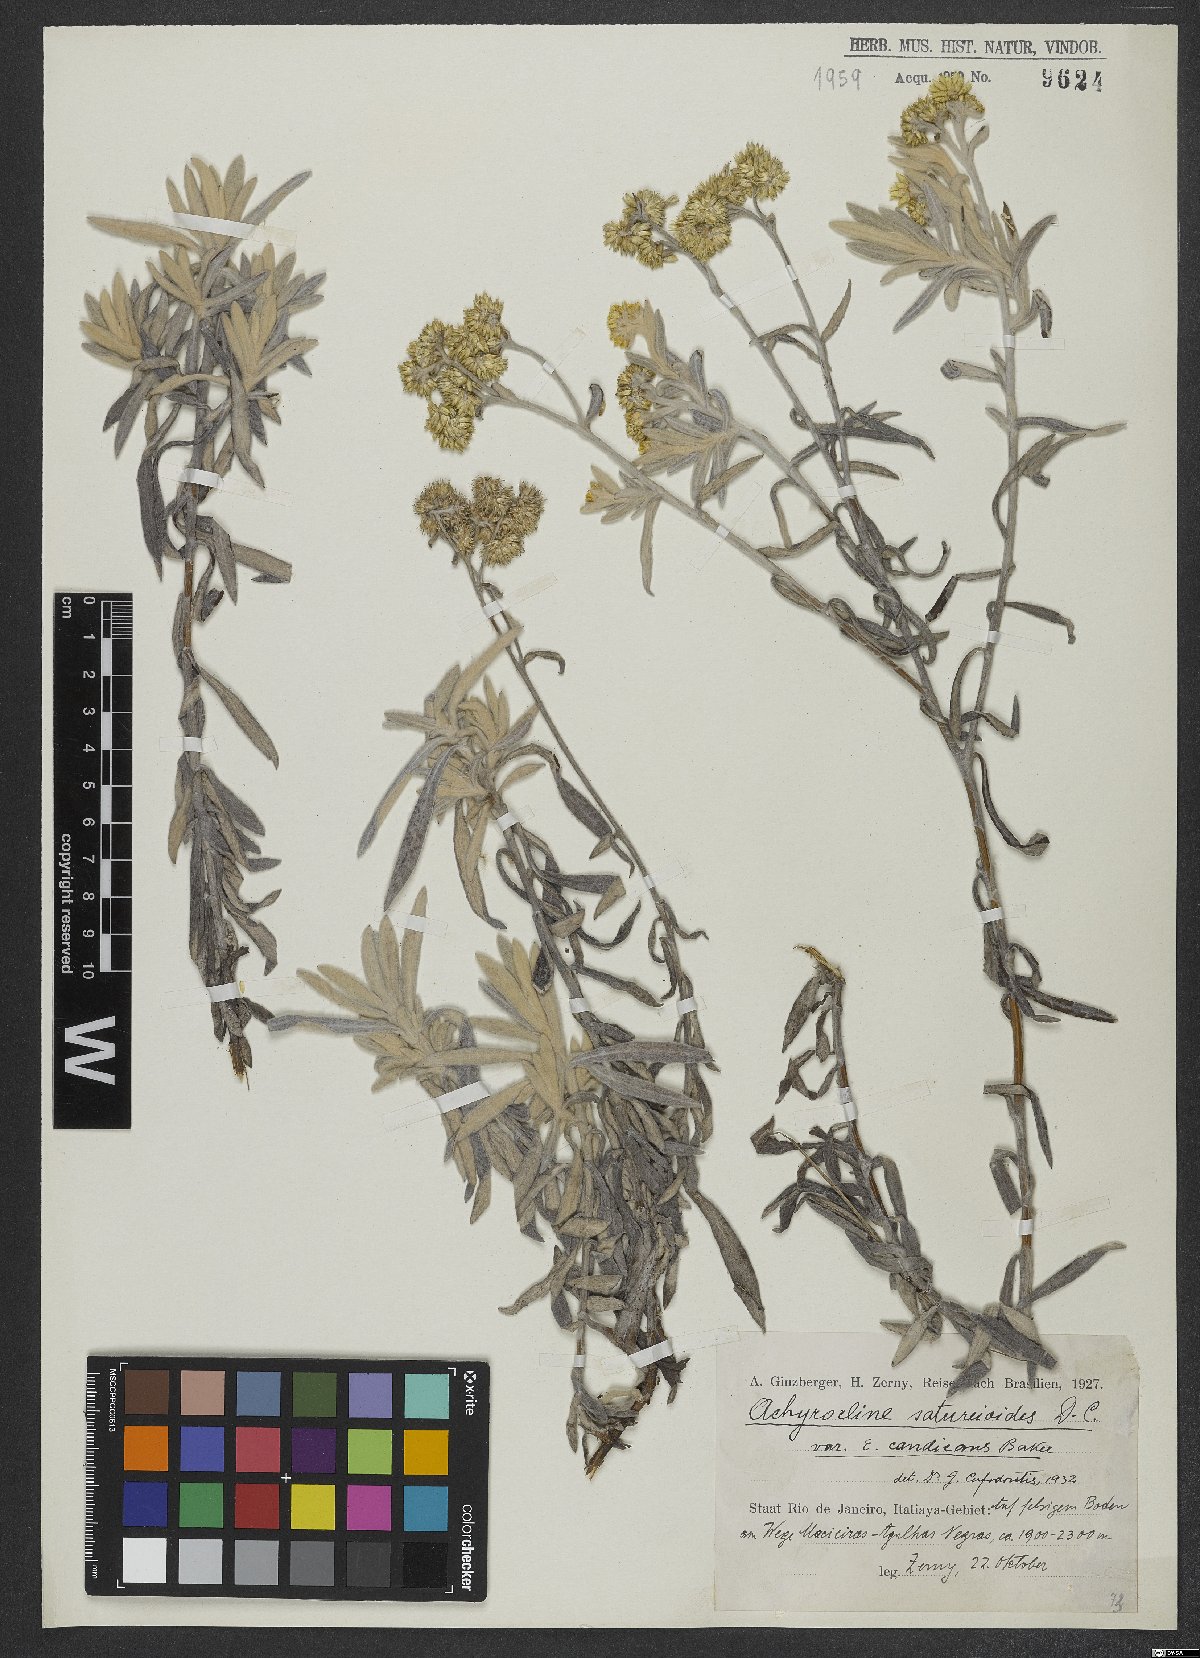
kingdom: Plantae
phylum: Tracheophyta
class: Magnoliopsida
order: Asterales
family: Asteraceae
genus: Achyrocline
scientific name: Achyrocline satureioides
